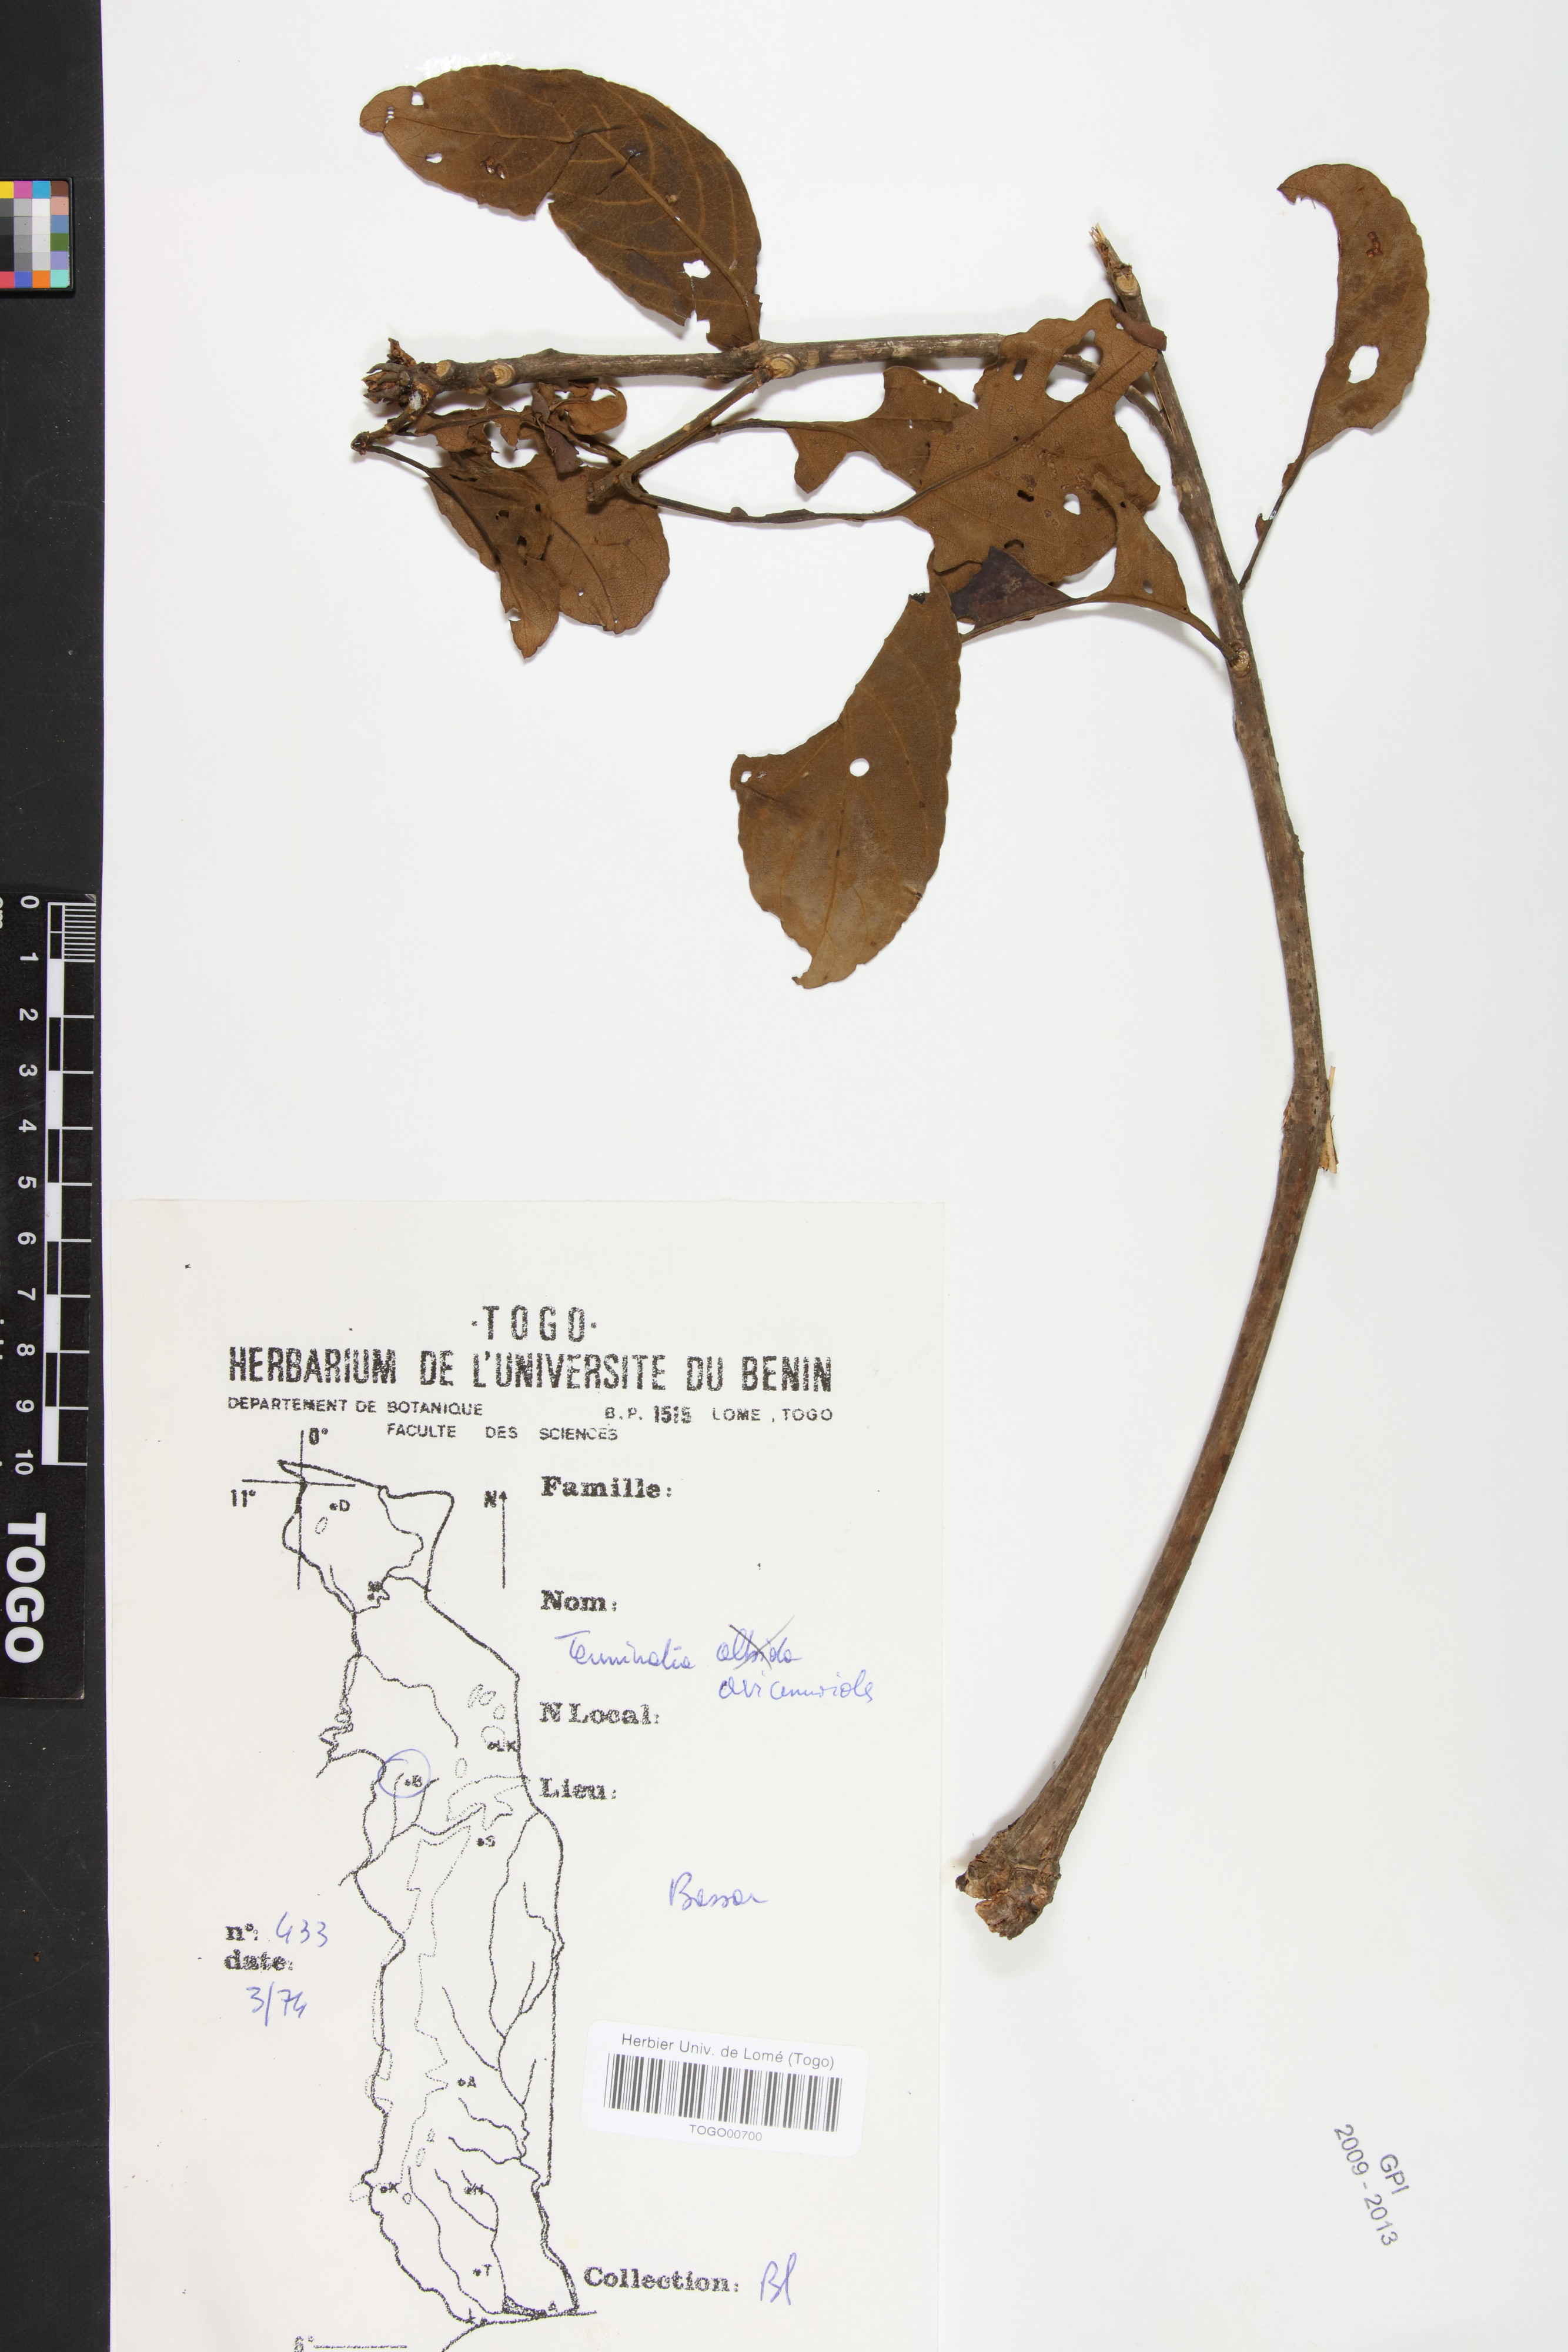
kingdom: Plantae
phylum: Tracheophyta
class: Magnoliopsida
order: Myrtales
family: Combretaceae
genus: Terminalia
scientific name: Terminalia avicennioides
